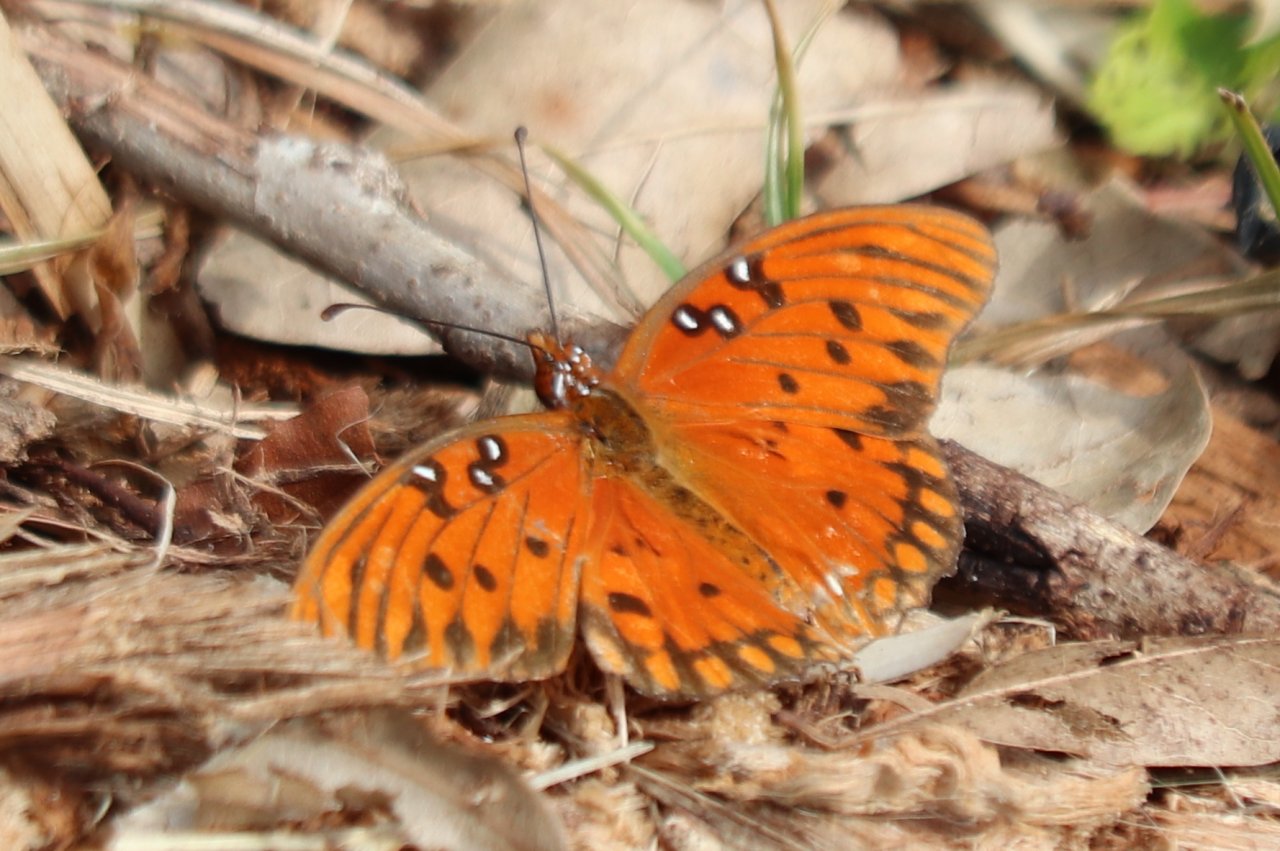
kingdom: Animalia
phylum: Arthropoda
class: Insecta
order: Lepidoptera
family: Nymphalidae
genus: Dione
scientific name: Dione vanillae
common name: Gulf Fritillary
